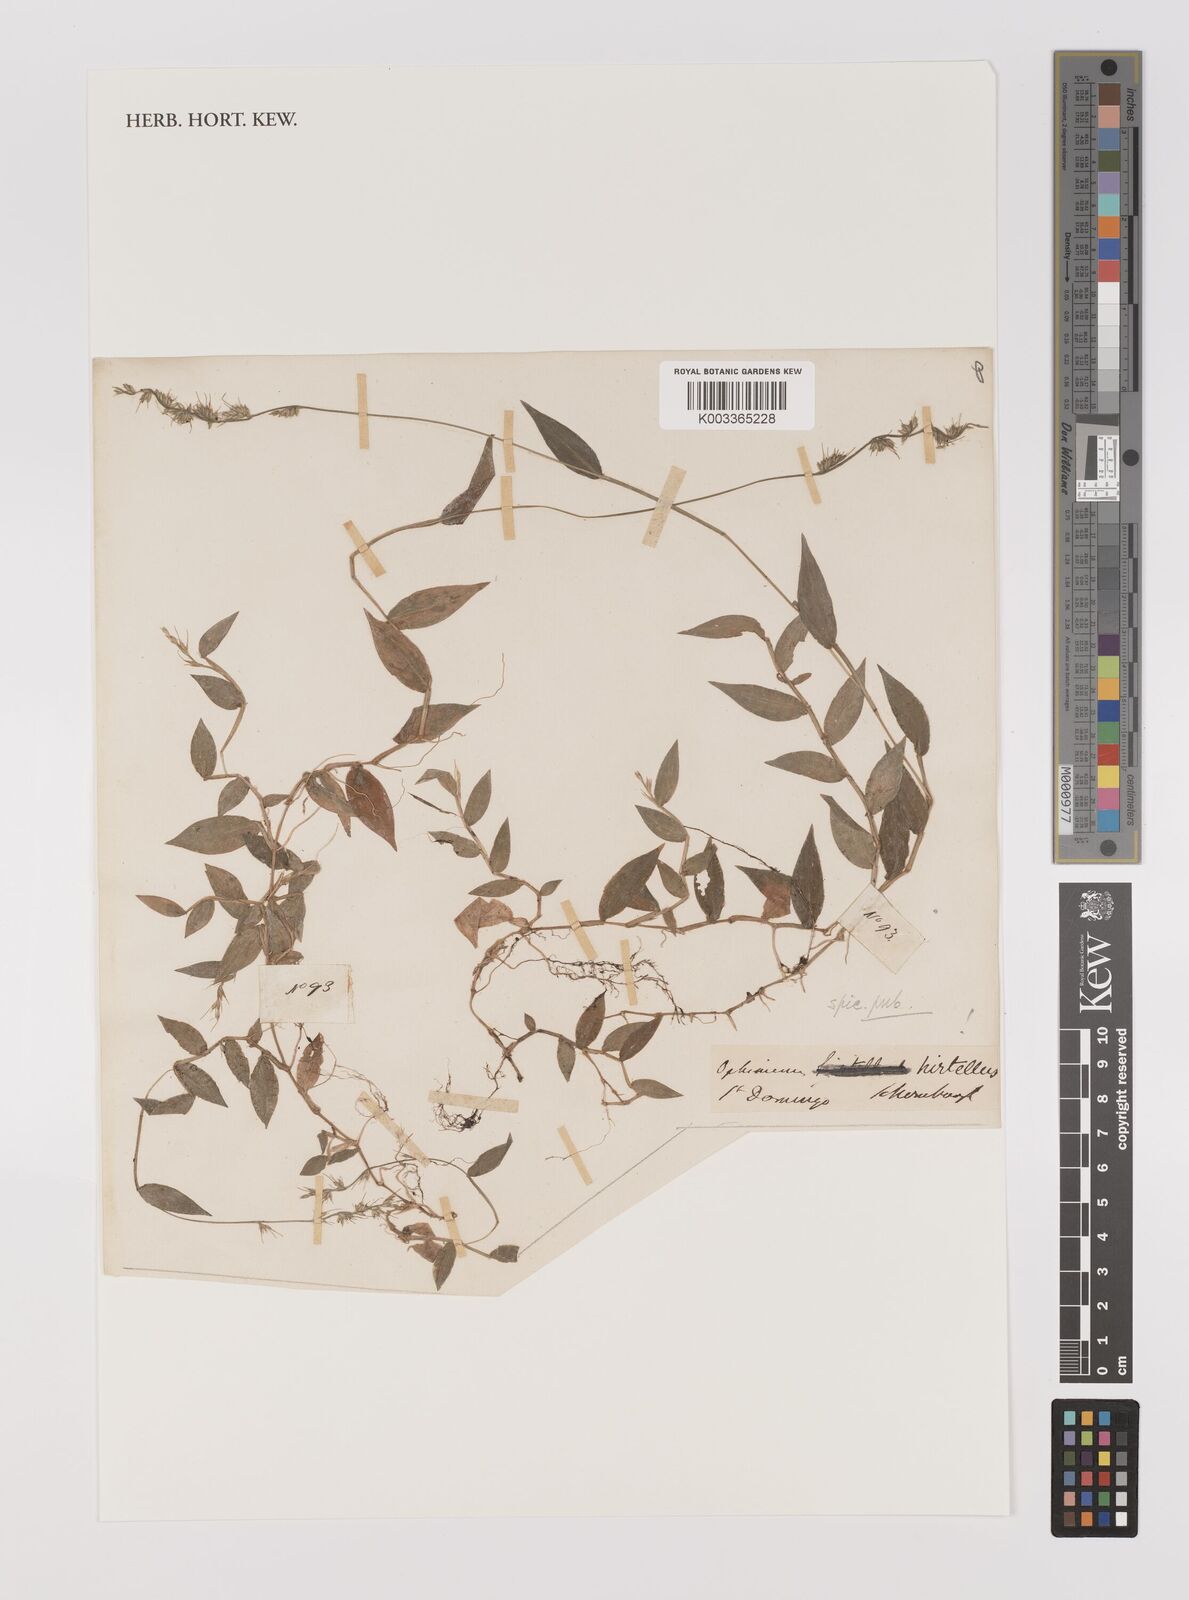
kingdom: Plantae
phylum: Tracheophyta
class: Liliopsida
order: Poales
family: Poaceae
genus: Oplismenus
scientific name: Oplismenus hirtellus
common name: Basketgrass
